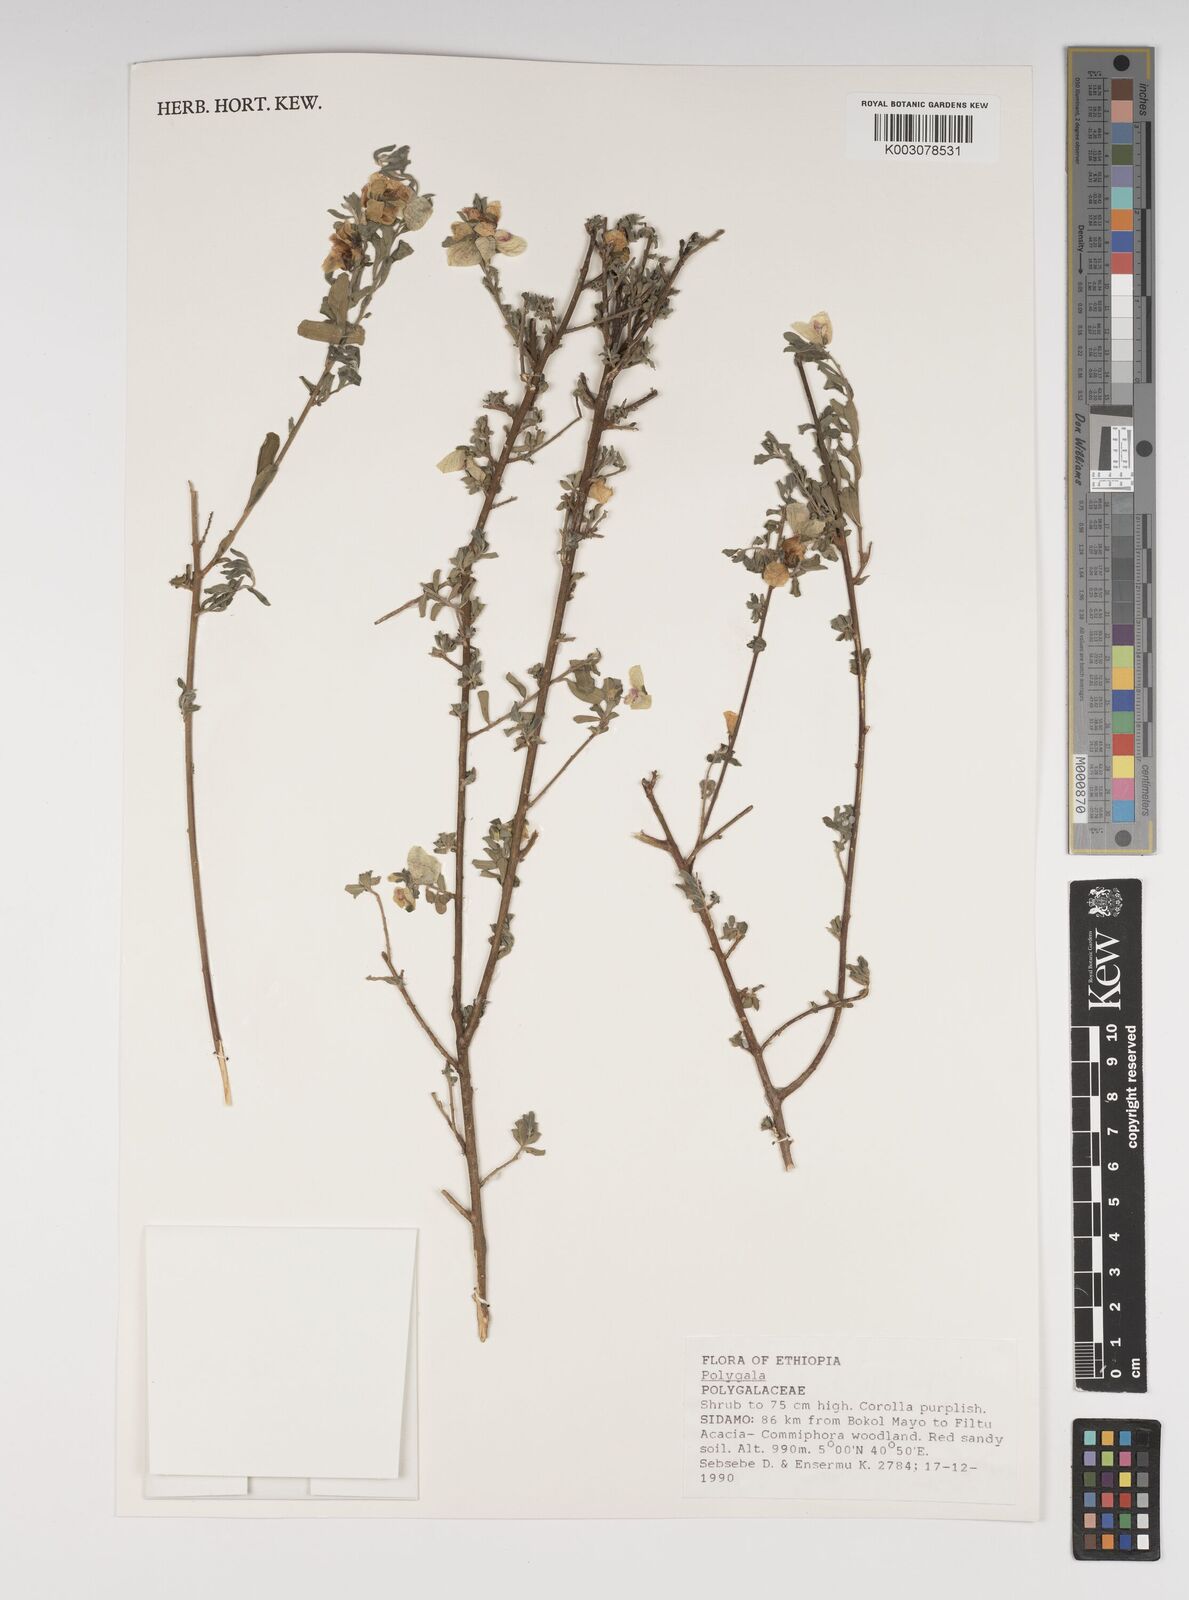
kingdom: Plantae
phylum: Tracheophyta
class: Magnoliopsida
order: Fabales
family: Polygalaceae
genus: Polygala
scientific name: Polygala senensis
